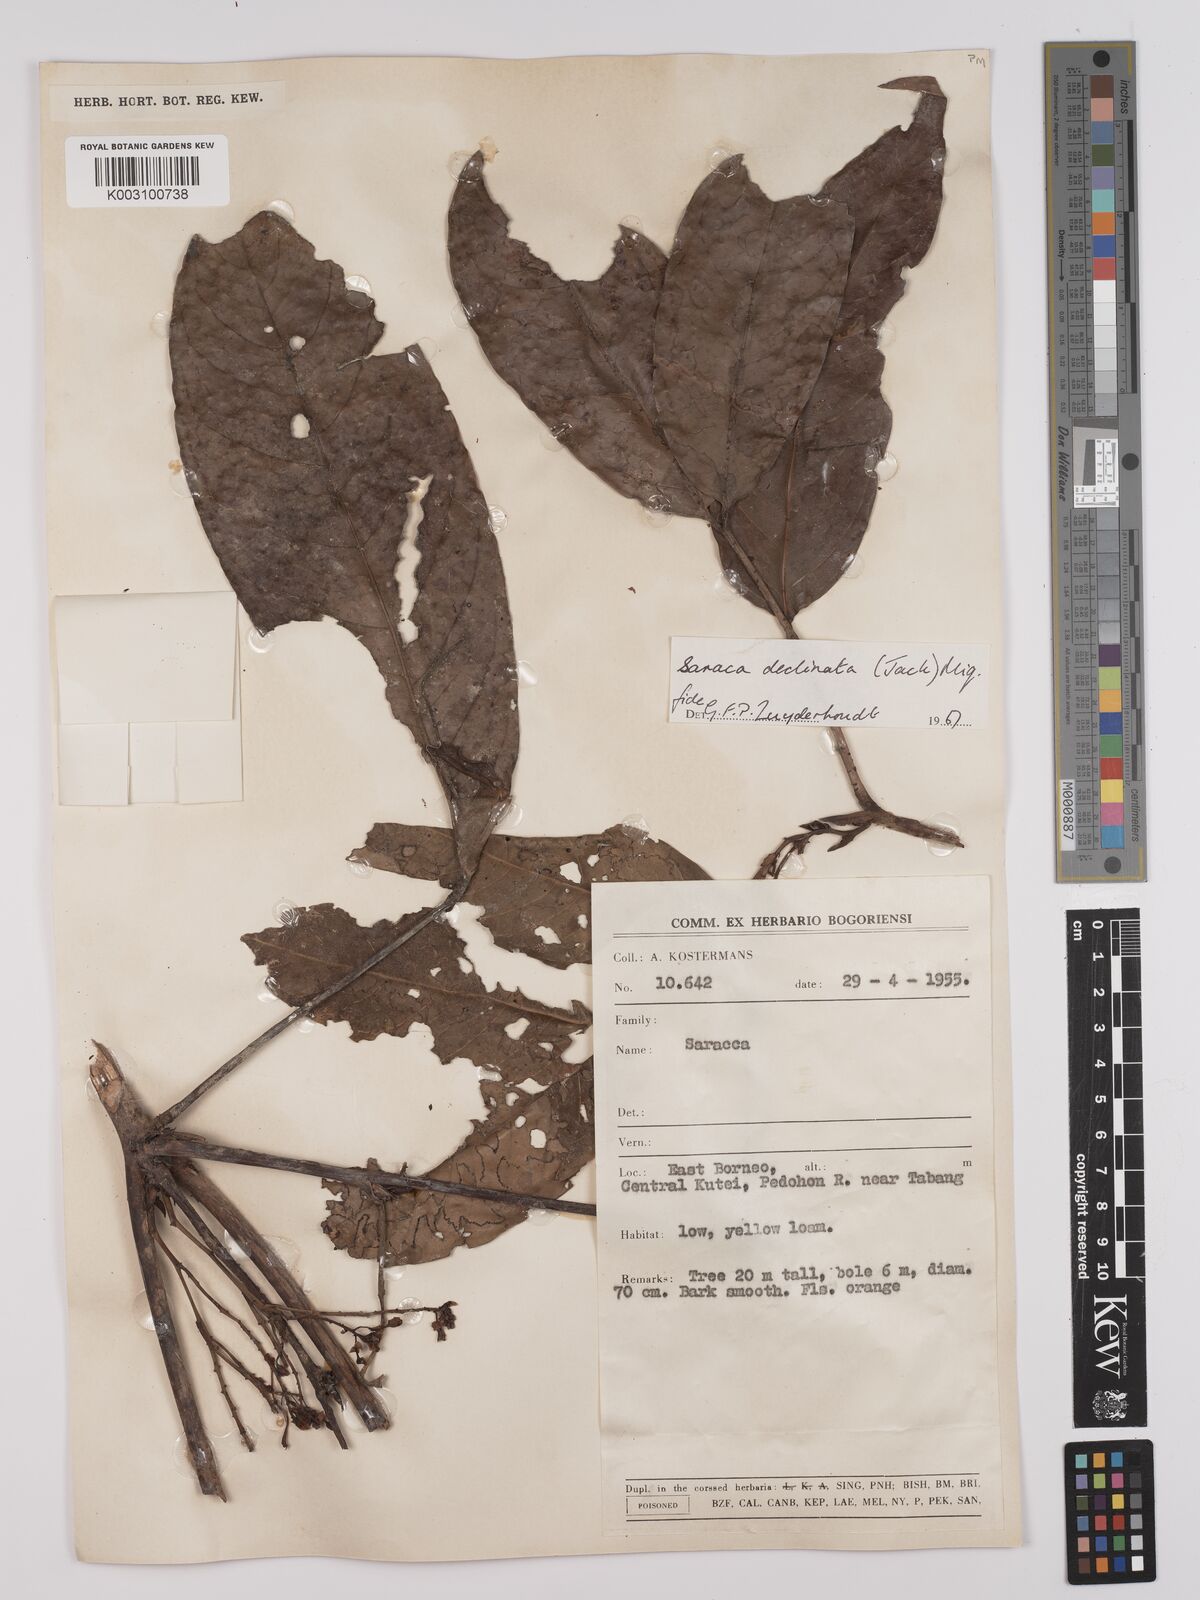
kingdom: Plantae
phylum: Tracheophyta
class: Magnoliopsida
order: Fabales
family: Fabaceae
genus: Saraca
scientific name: Saraca declinata
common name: Red saraca
